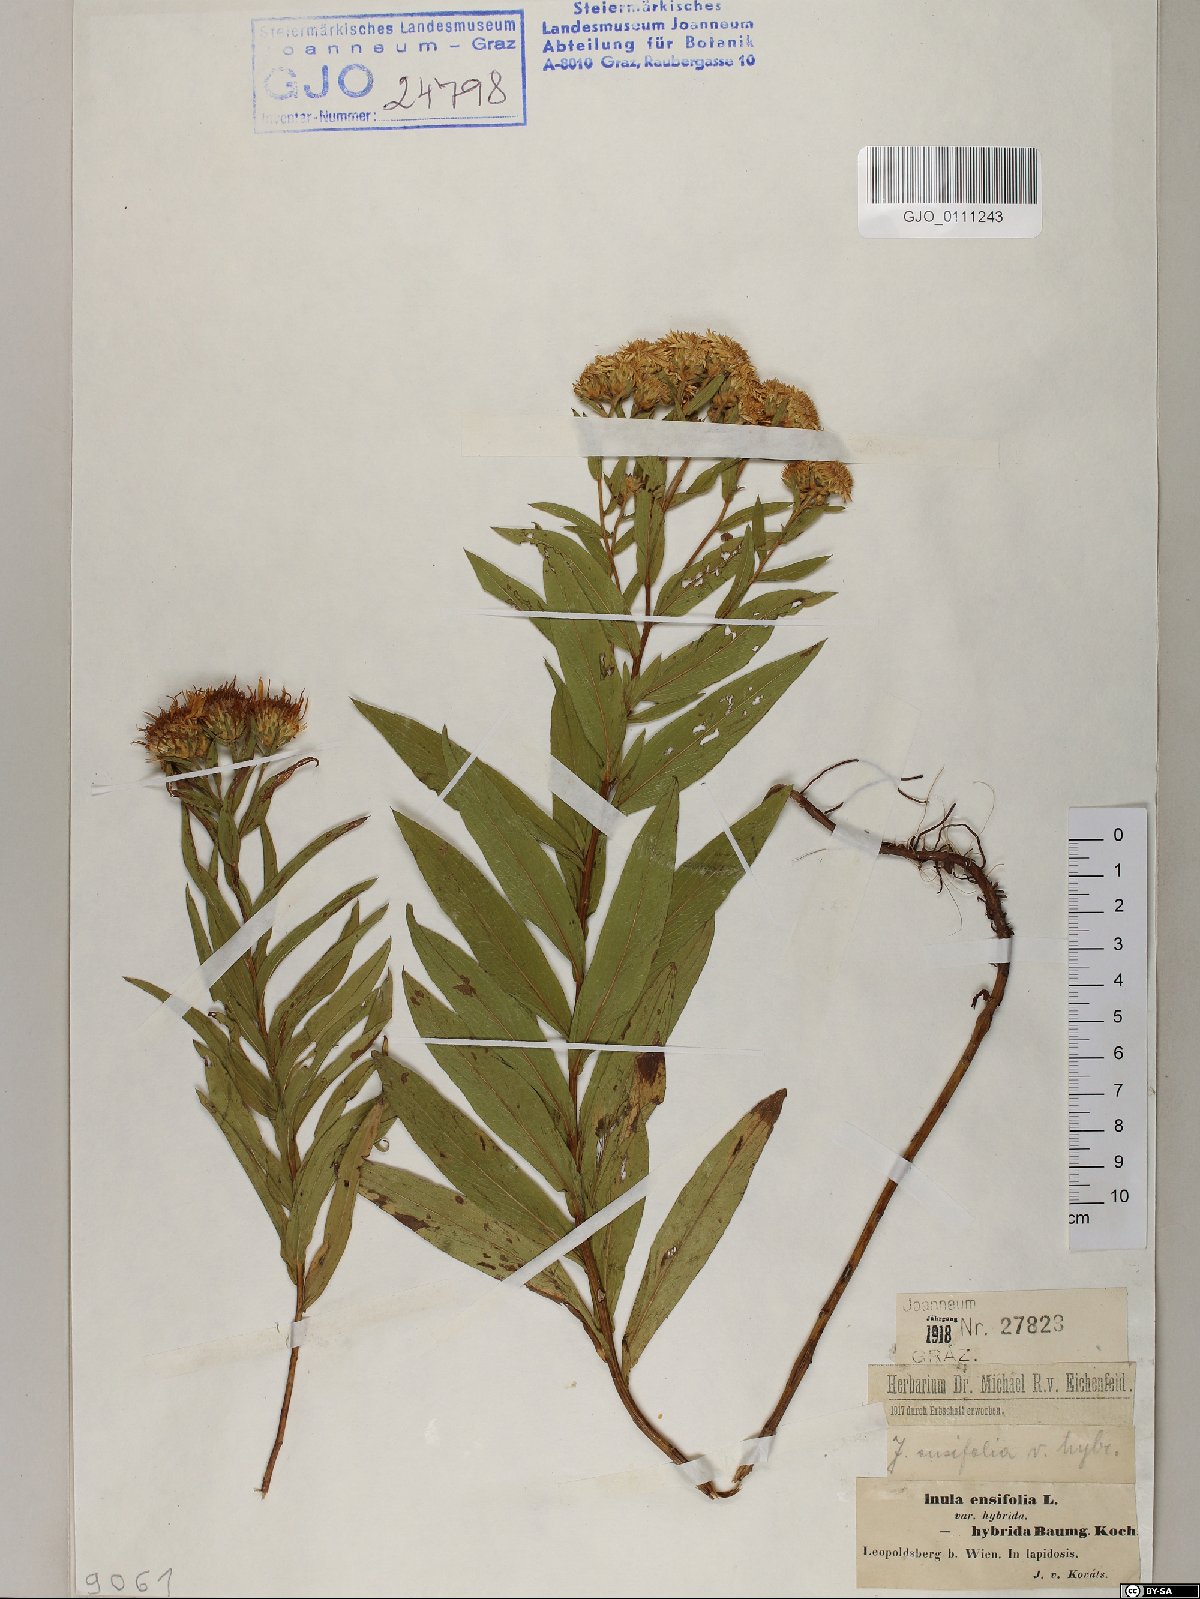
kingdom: Plantae
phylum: Tracheophyta
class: Magnoliopsida
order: Asterales
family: Asteraceae
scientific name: Asteraceae
